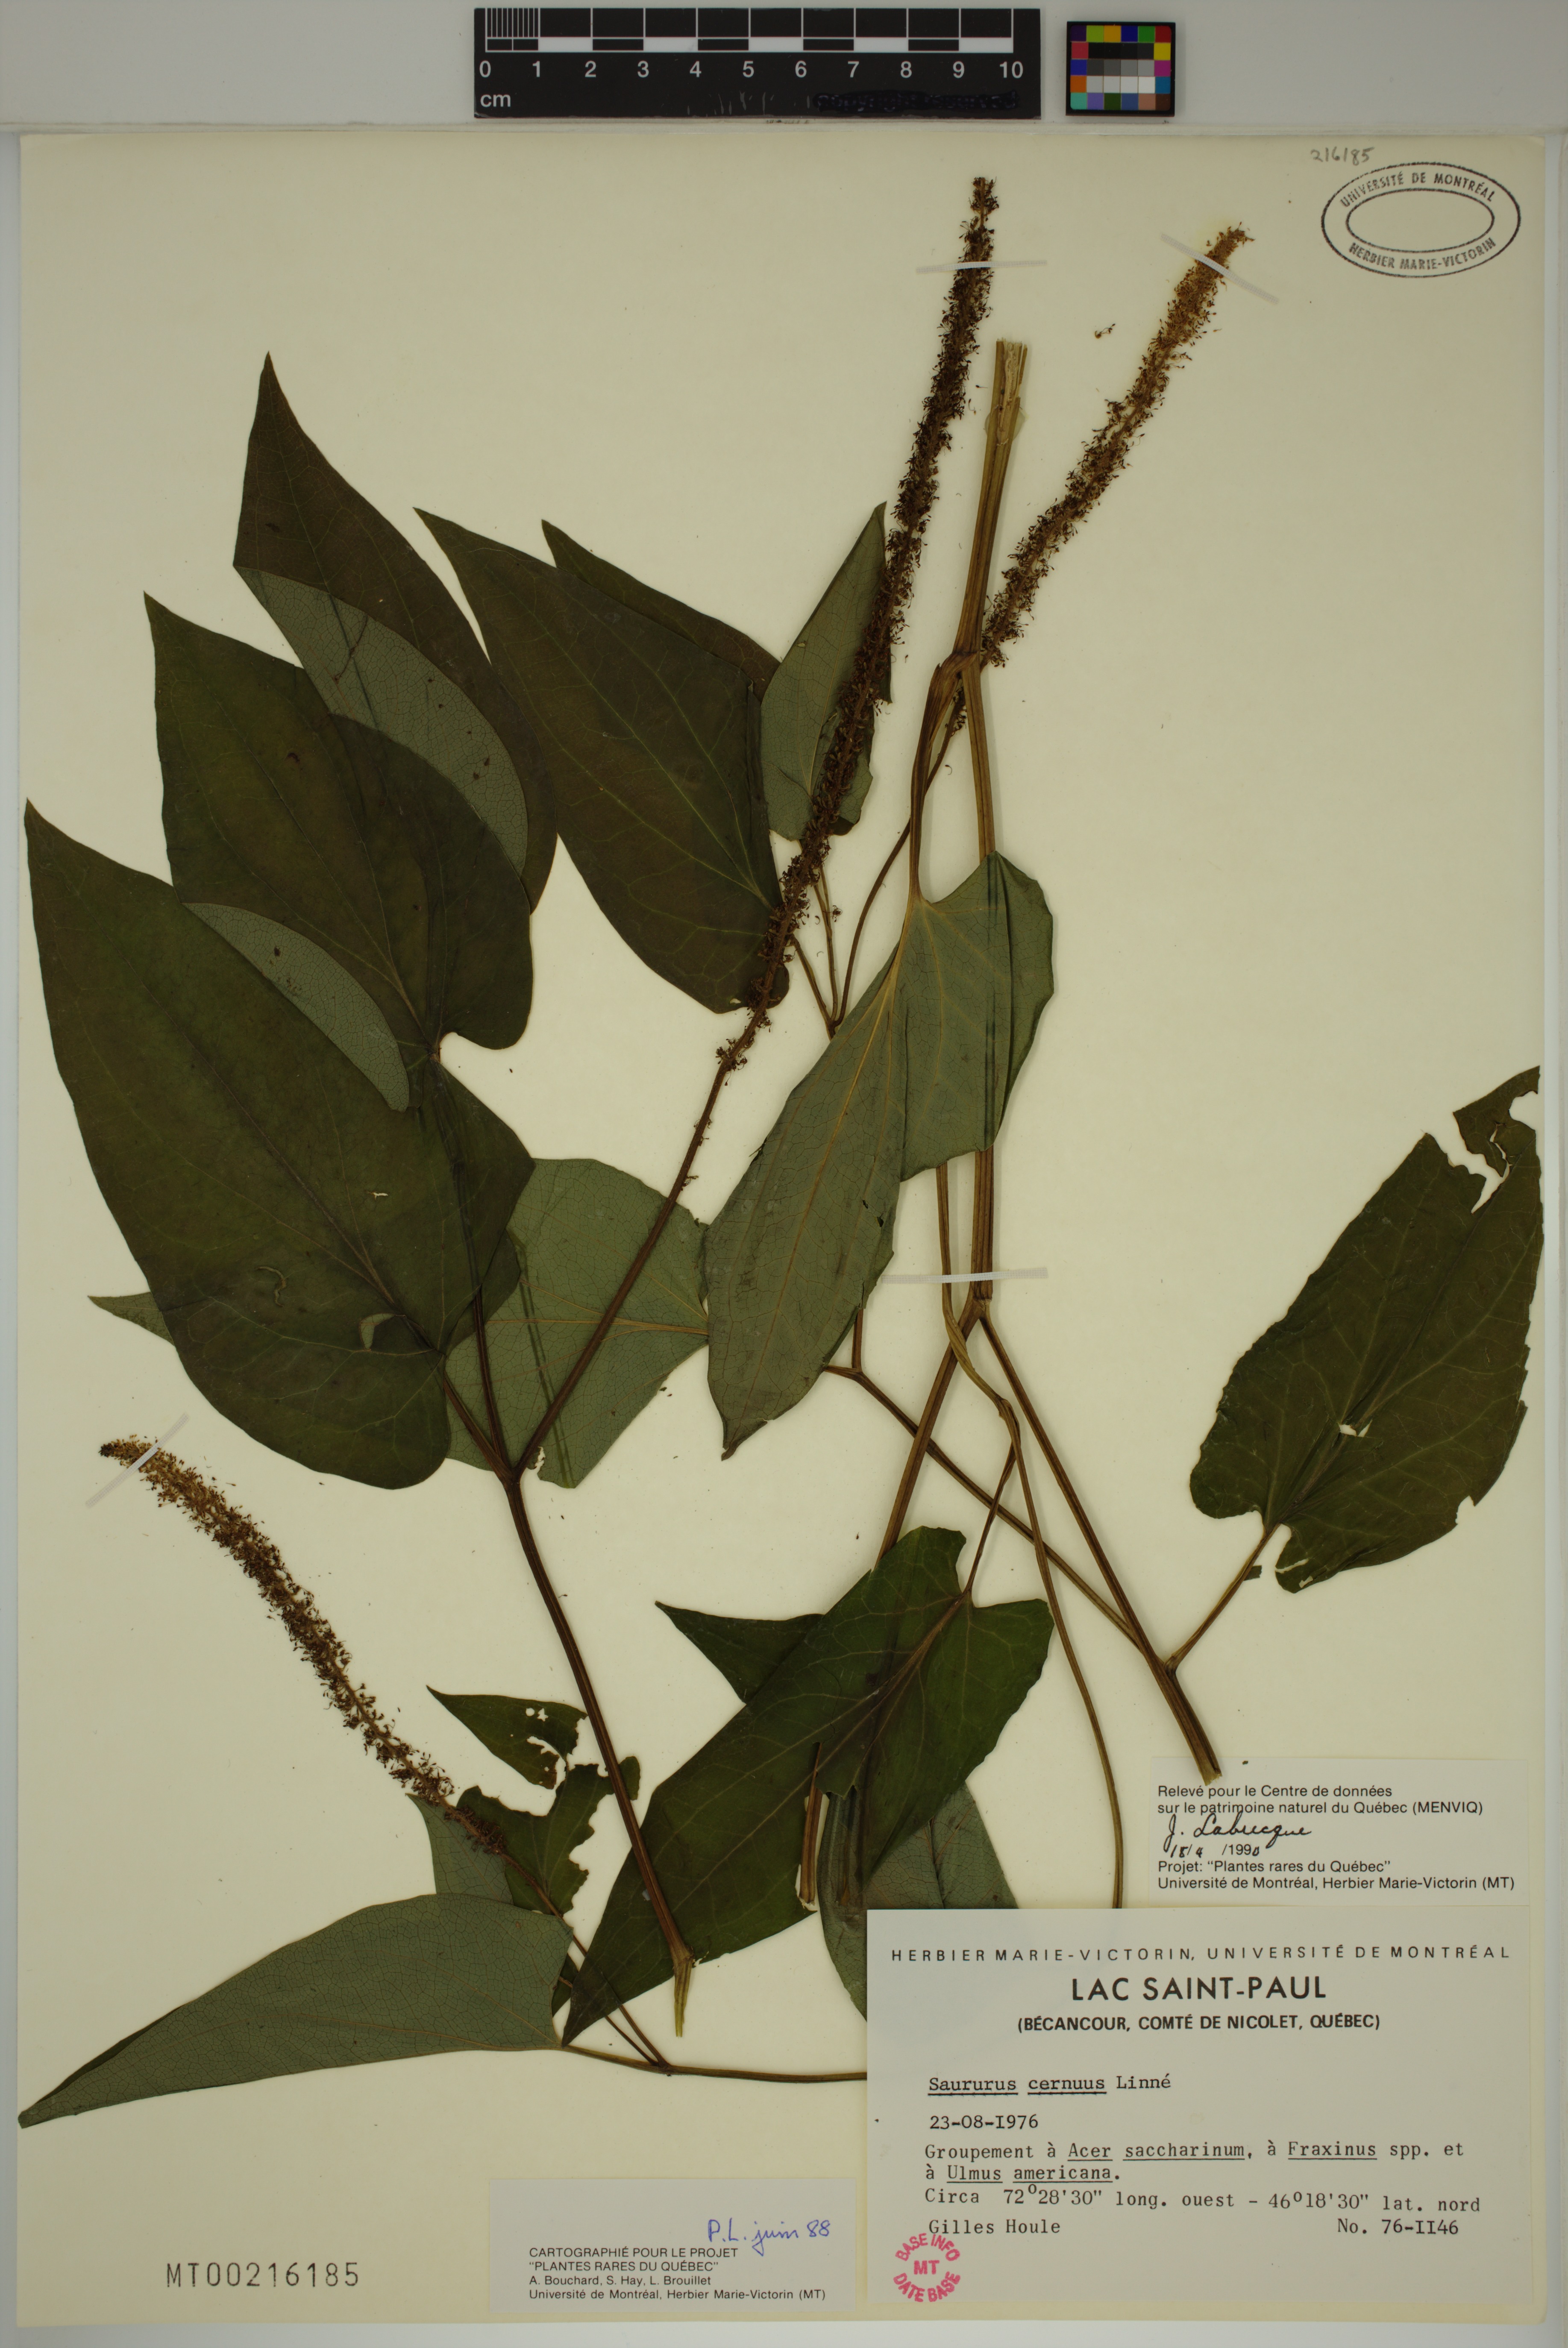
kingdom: Plantae
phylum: Tracheophyta
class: Magnoliopsida
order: Piperales
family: Saururaceae
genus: Saururus
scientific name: Saururus cernuus
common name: Lizard's-tail
